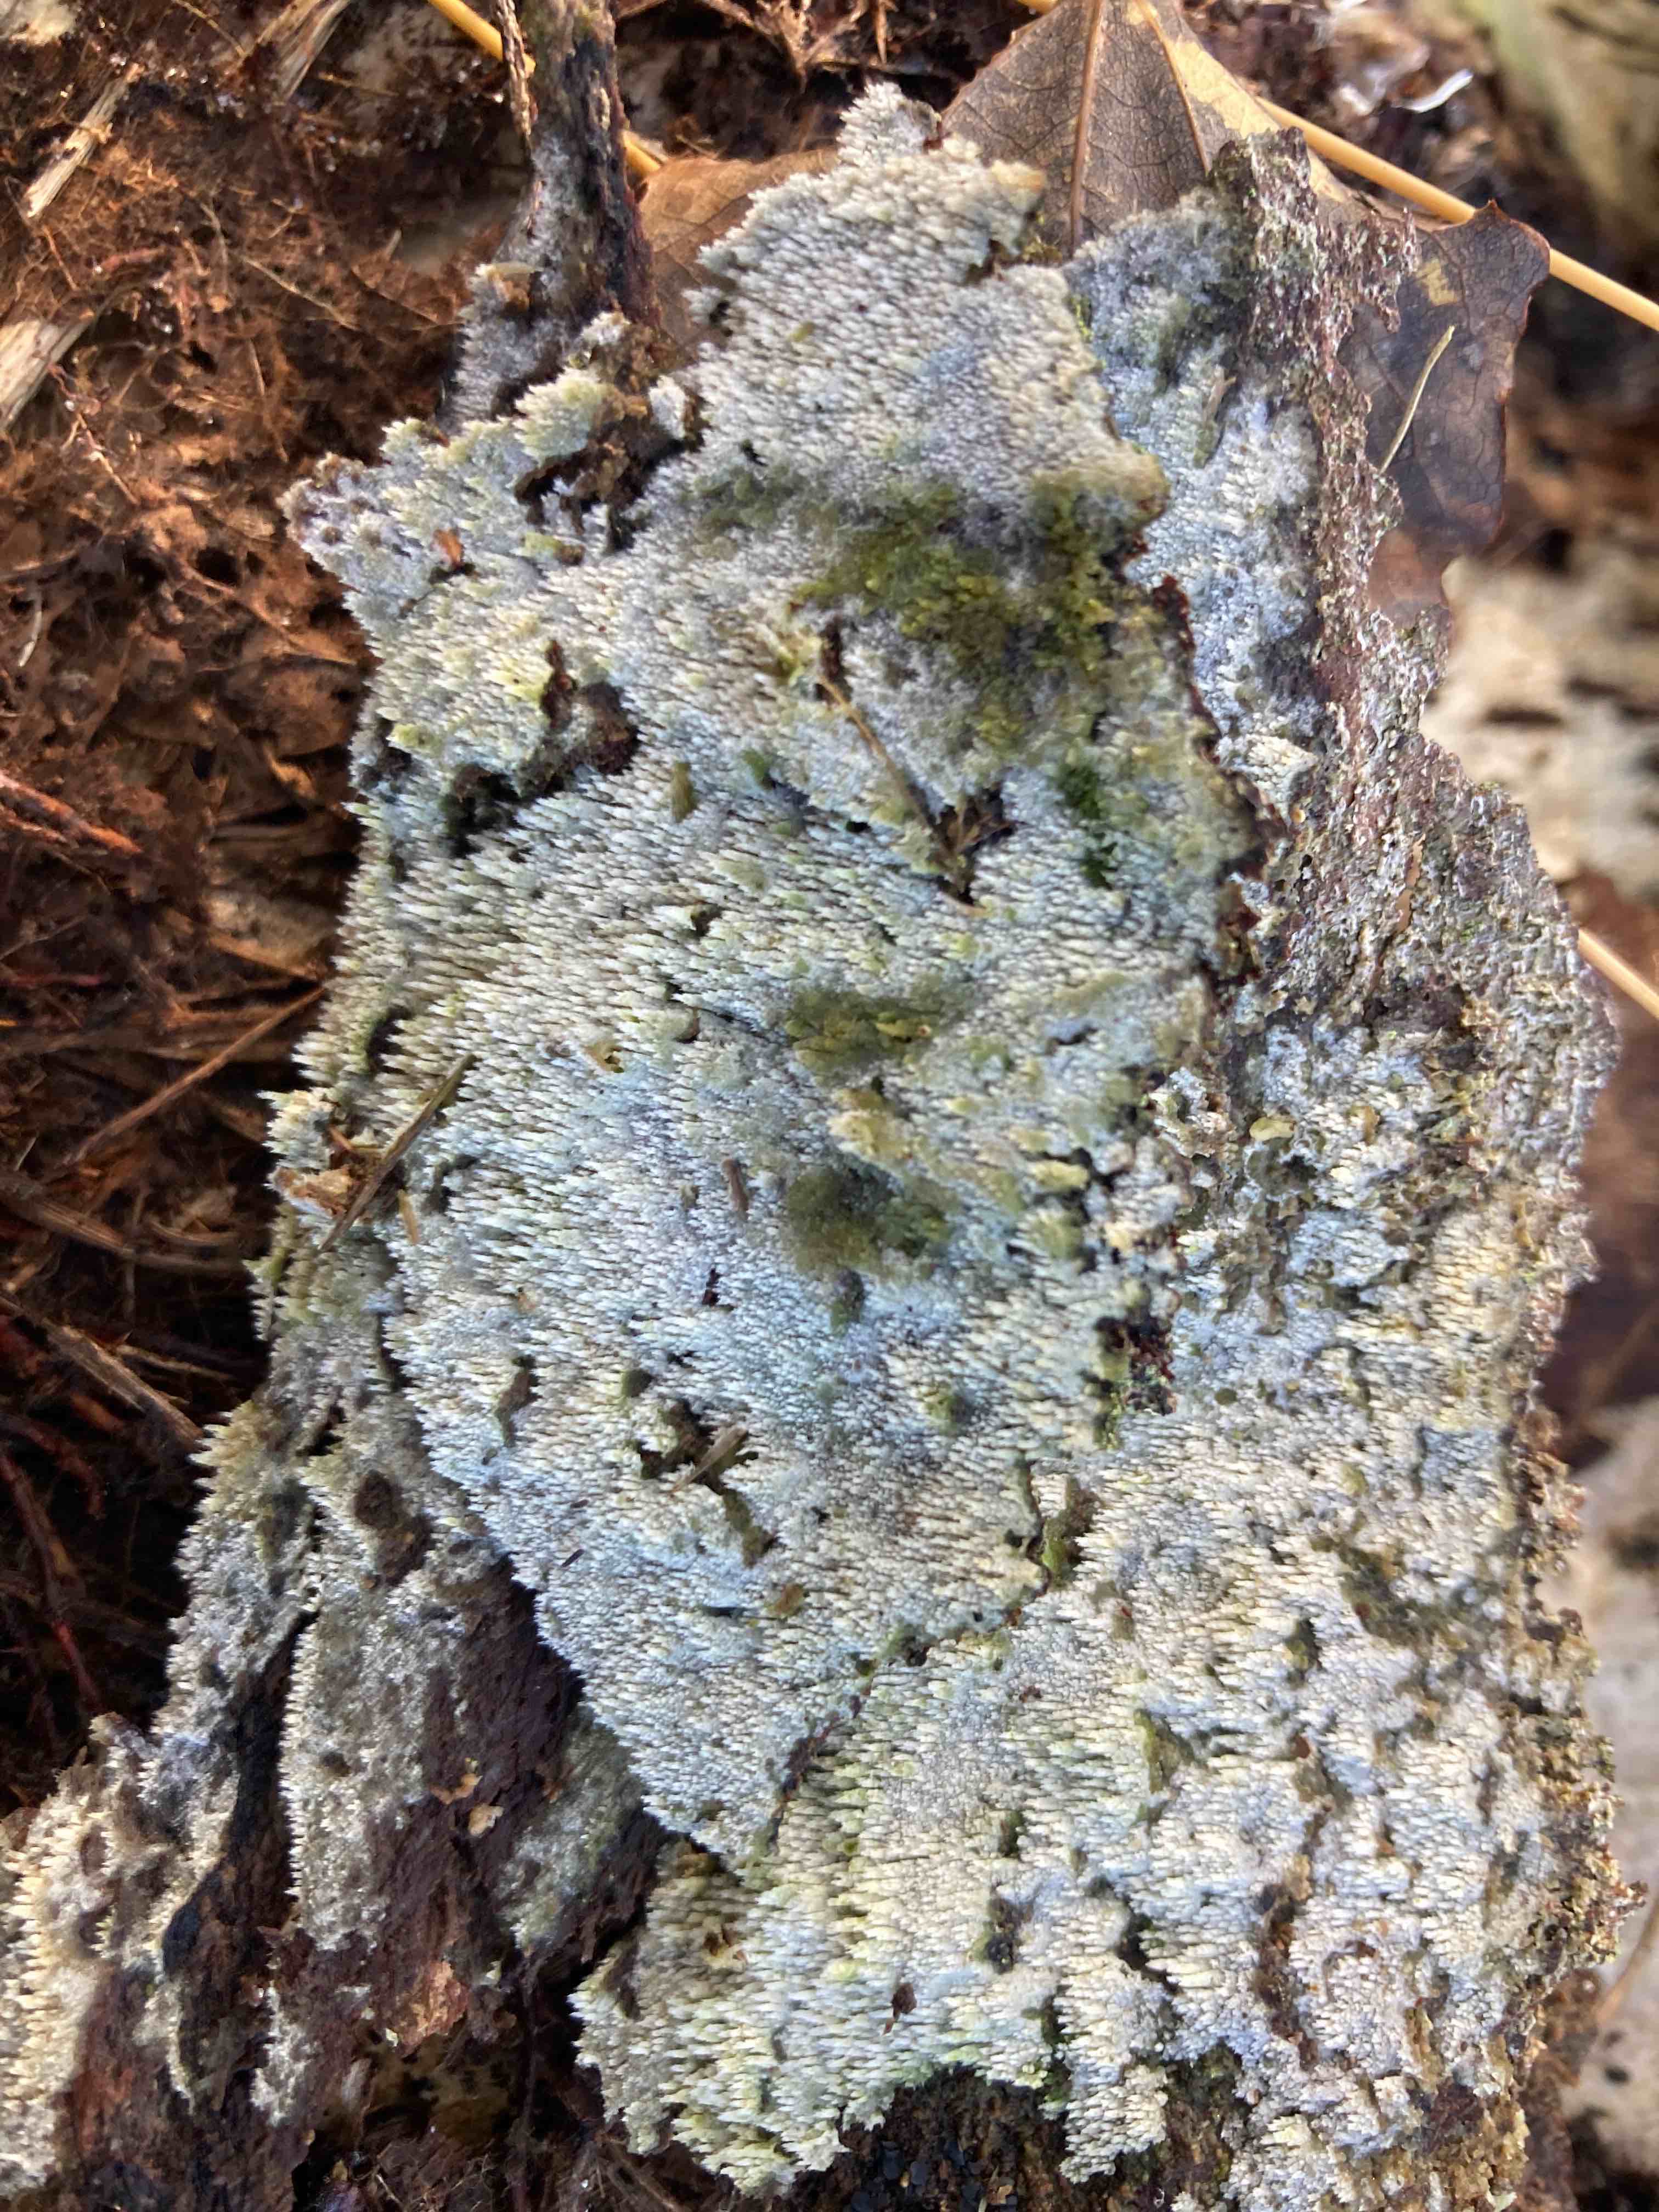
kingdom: Fungi
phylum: Basidiomycota
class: Agaricomycetes
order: Hymenochaetales
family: Hyphodontiaceae
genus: Hyphodontia
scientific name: Hyphodontia barba-jovis
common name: skægget tandsvamp
